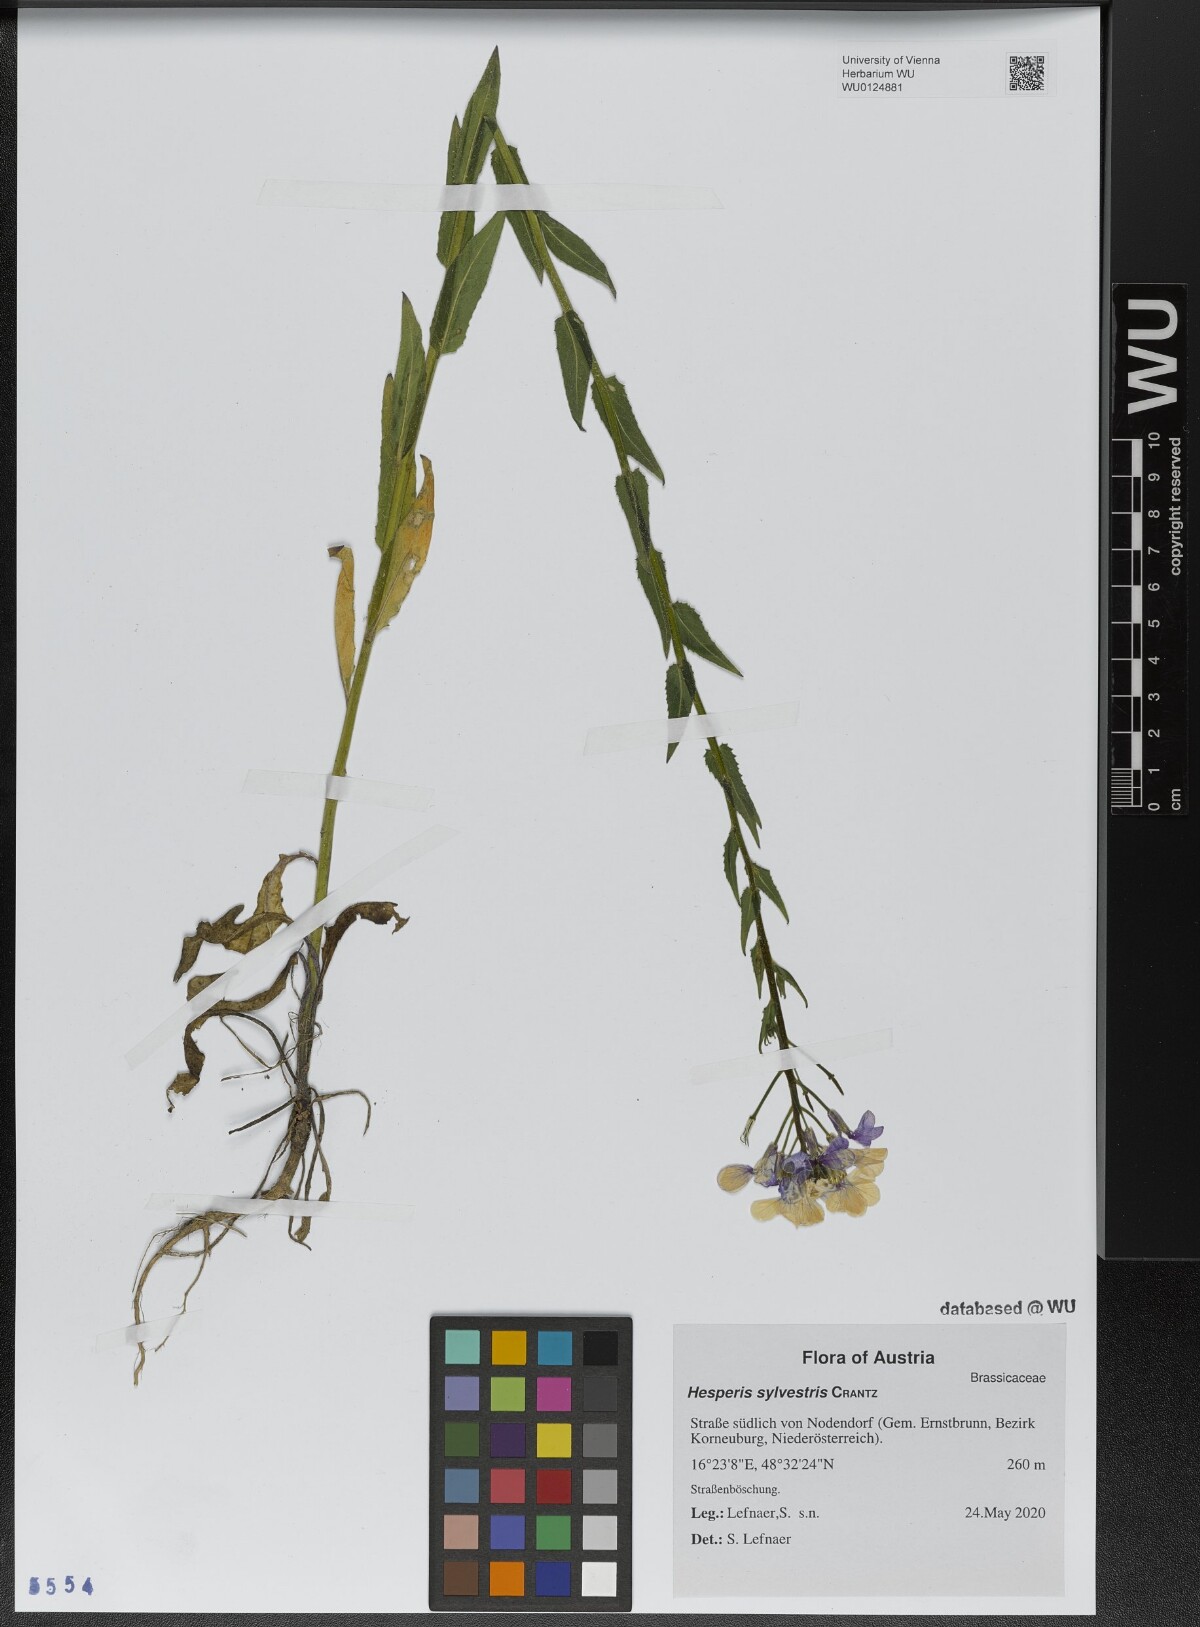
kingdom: Plantae
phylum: Tracheophyta
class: Magnoliopsida
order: Brassicales
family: Brassicaceae
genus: Hesperis
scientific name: Hesperis sylvestris
